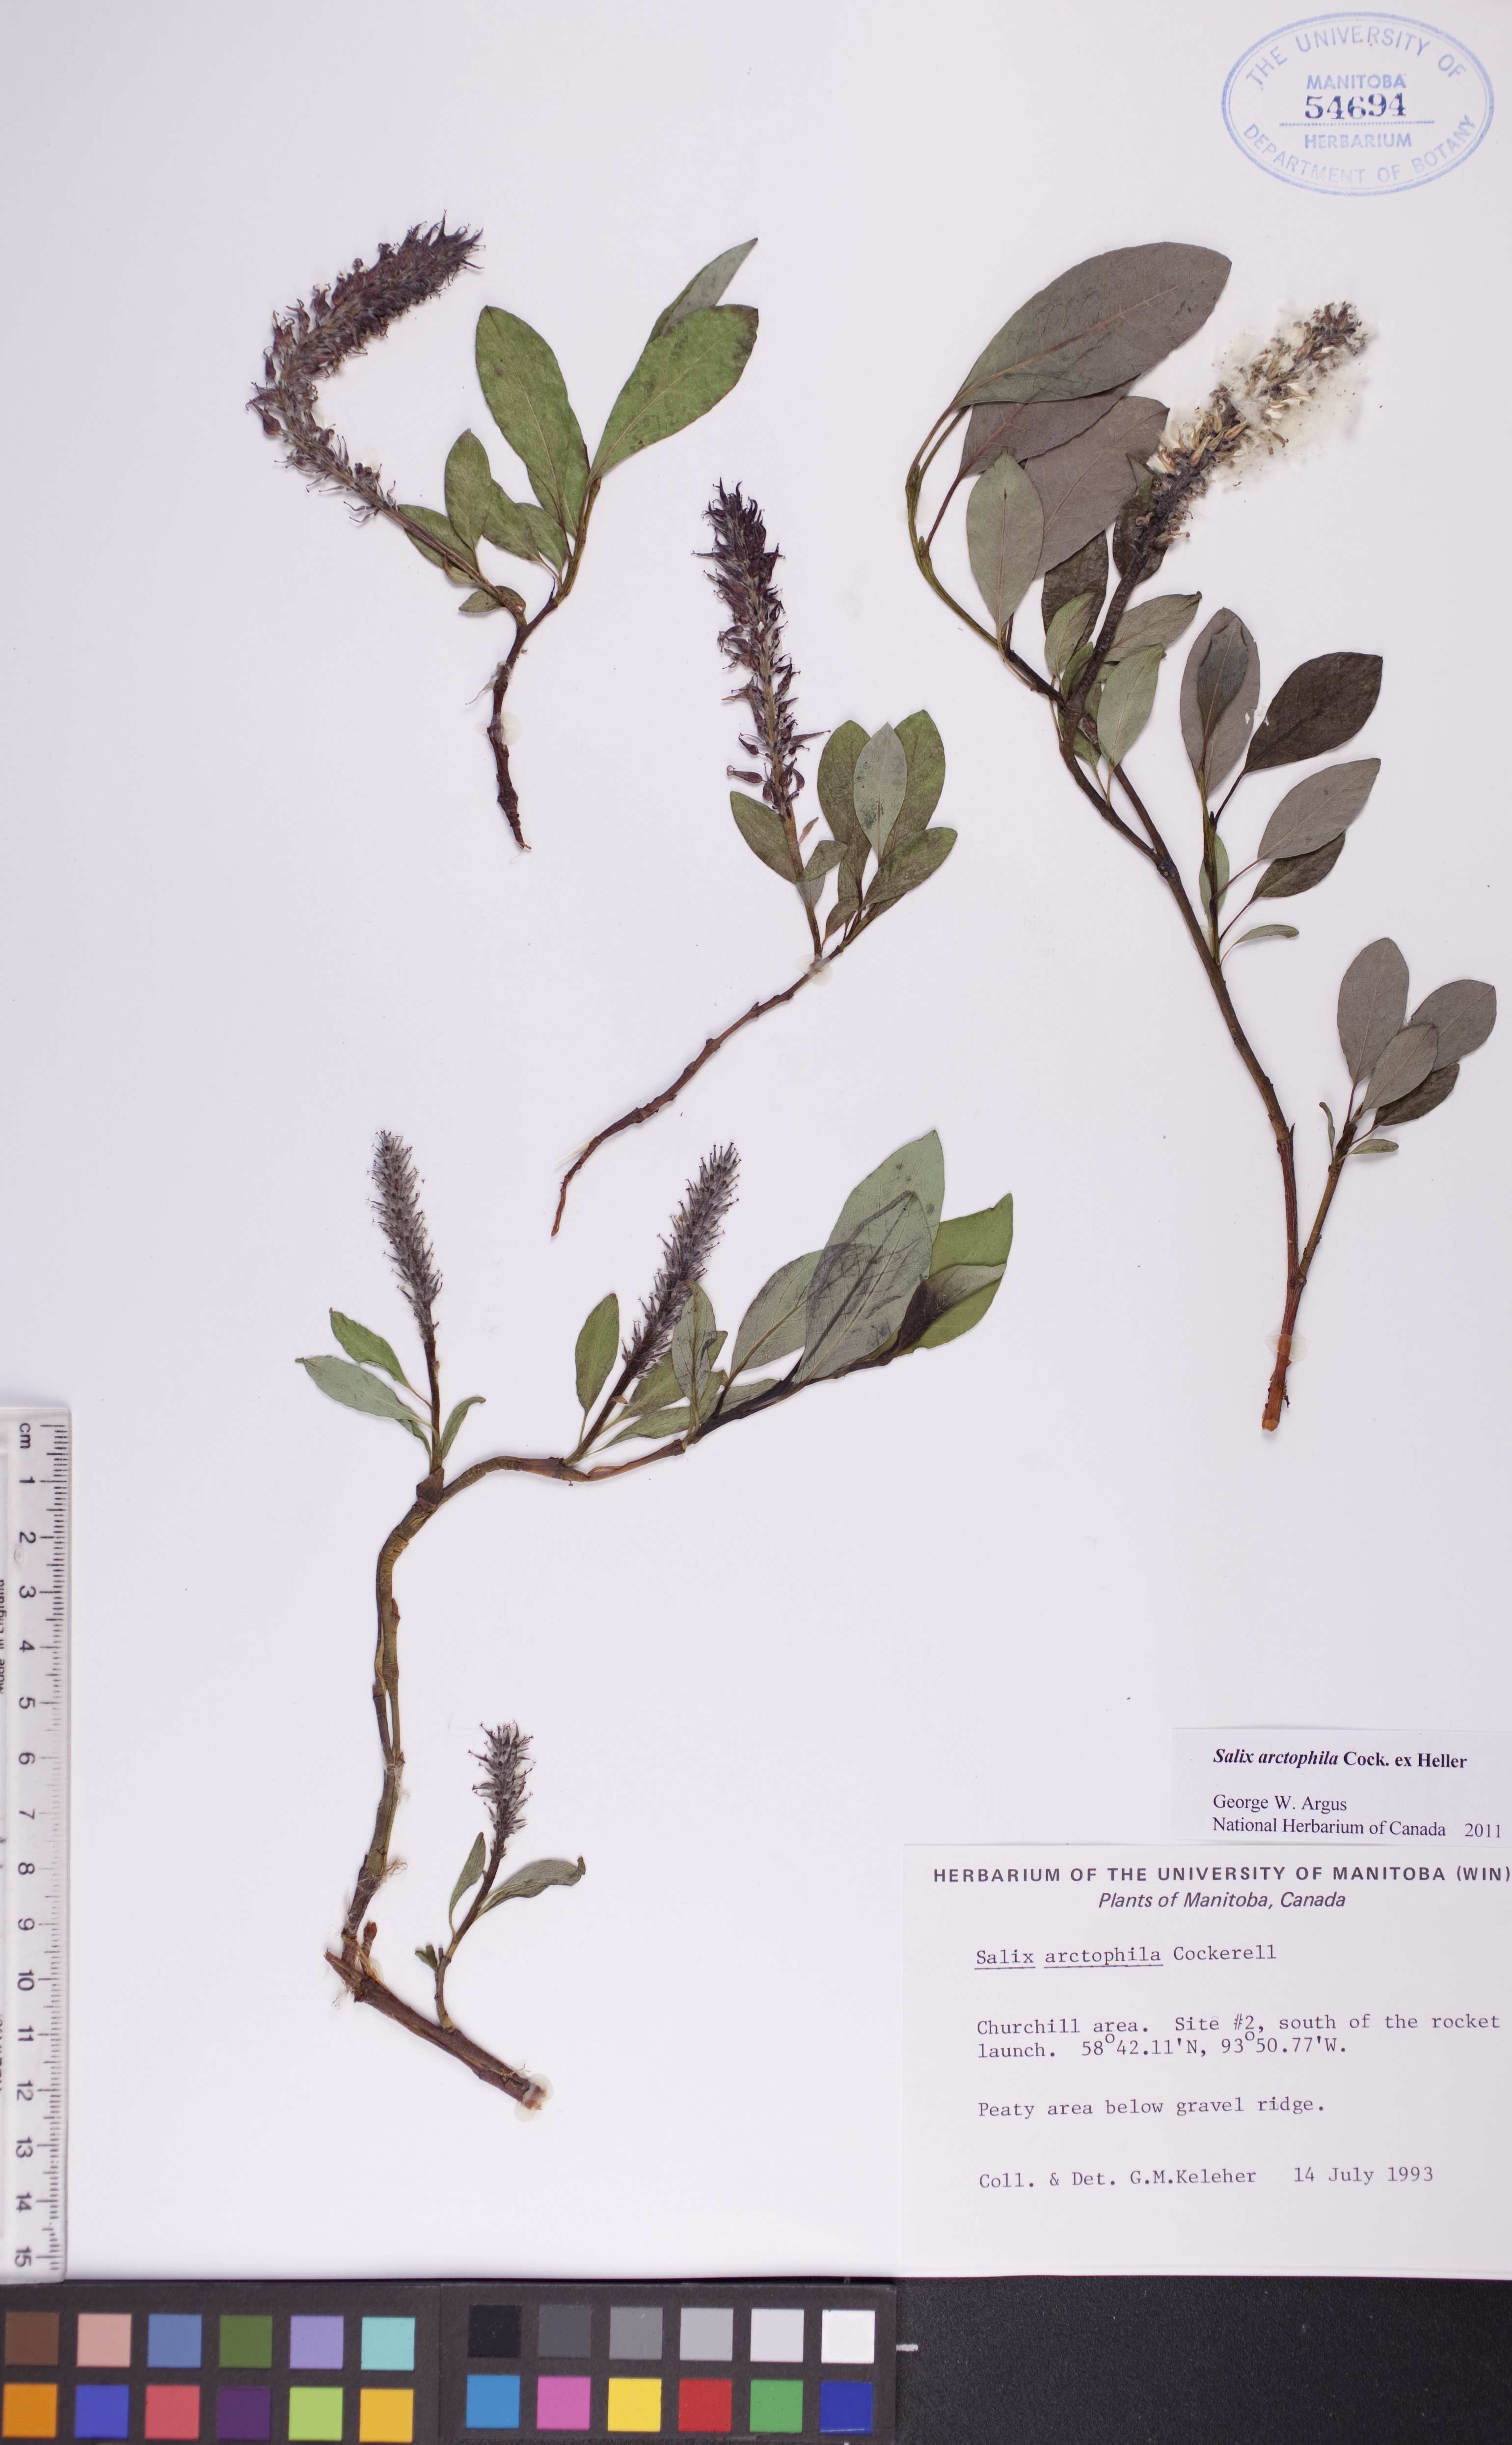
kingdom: Plantae
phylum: Tracheophyta
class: Magnoliopsida
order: Malpighiales
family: Salicaceae
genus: Salix
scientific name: Salix arctophila
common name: Greenland willow
